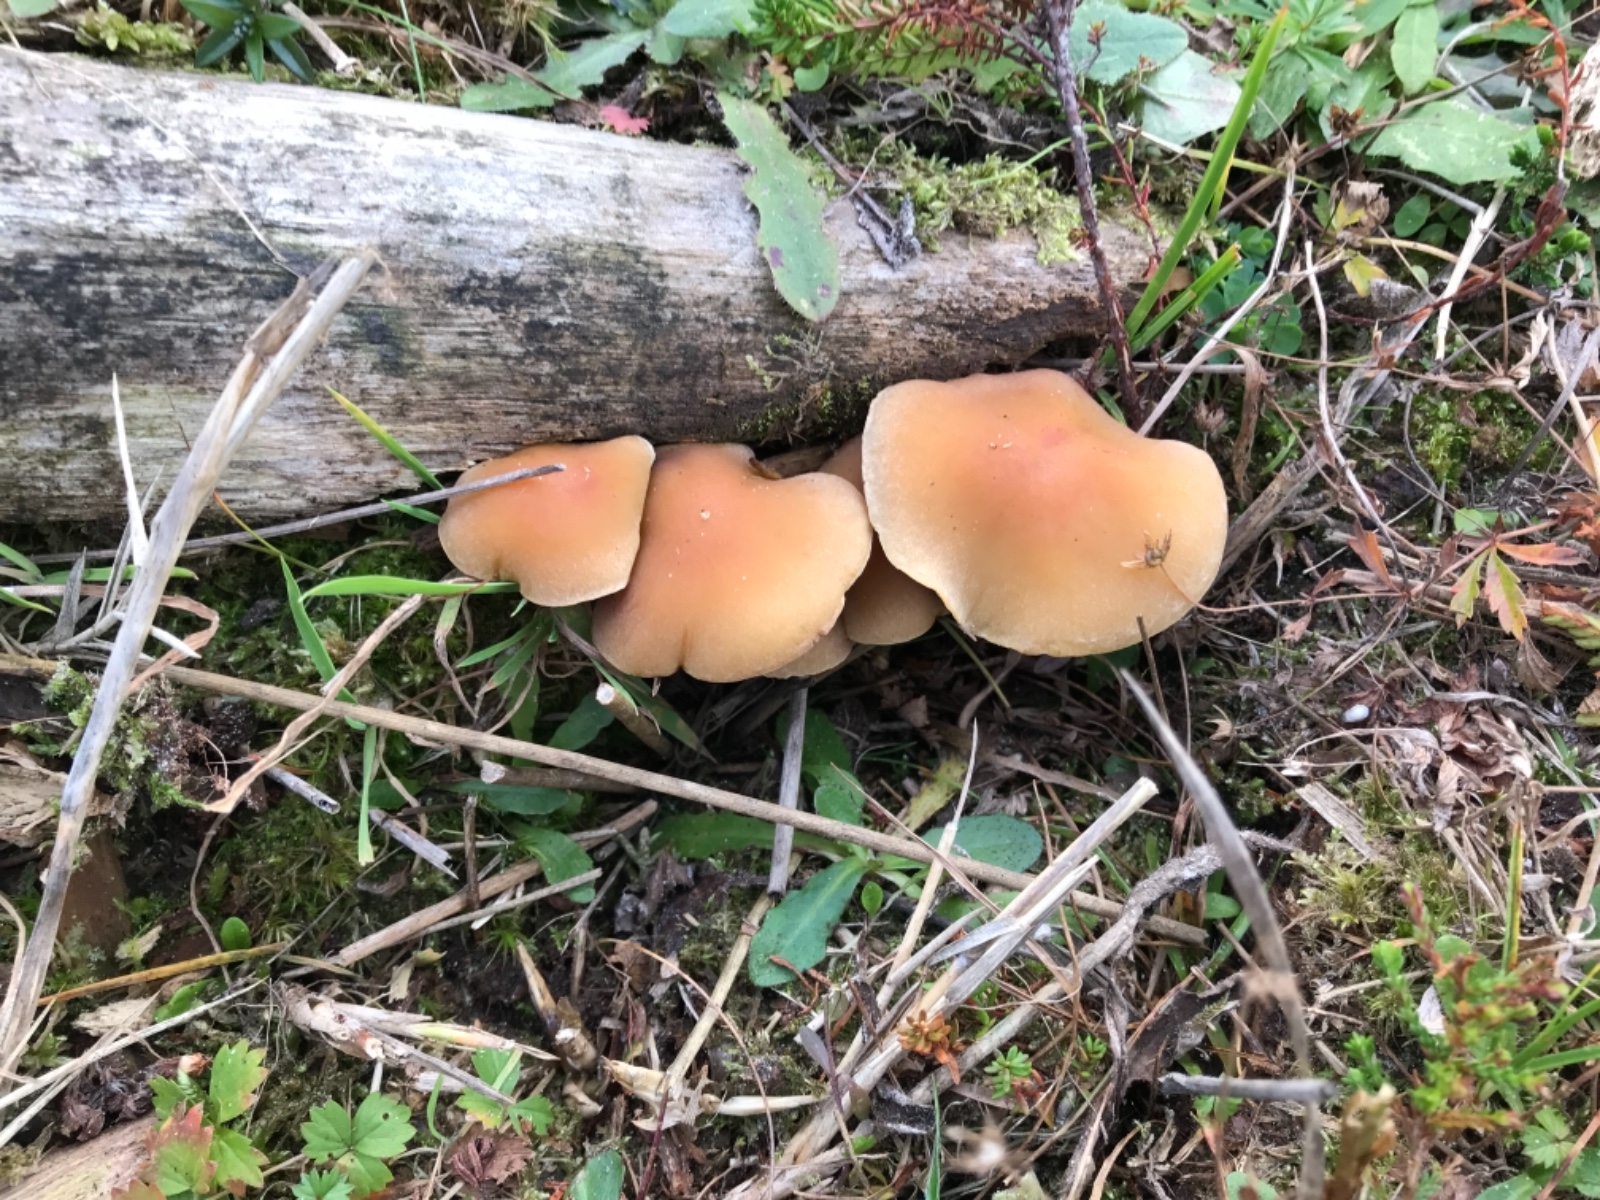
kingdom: Fungi
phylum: Basidiomycota
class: Agaricomycetes
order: Agaricales
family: Strophariaceae
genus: Hypholoma
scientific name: Hypholoma capnoides
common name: gran-svovlhat
